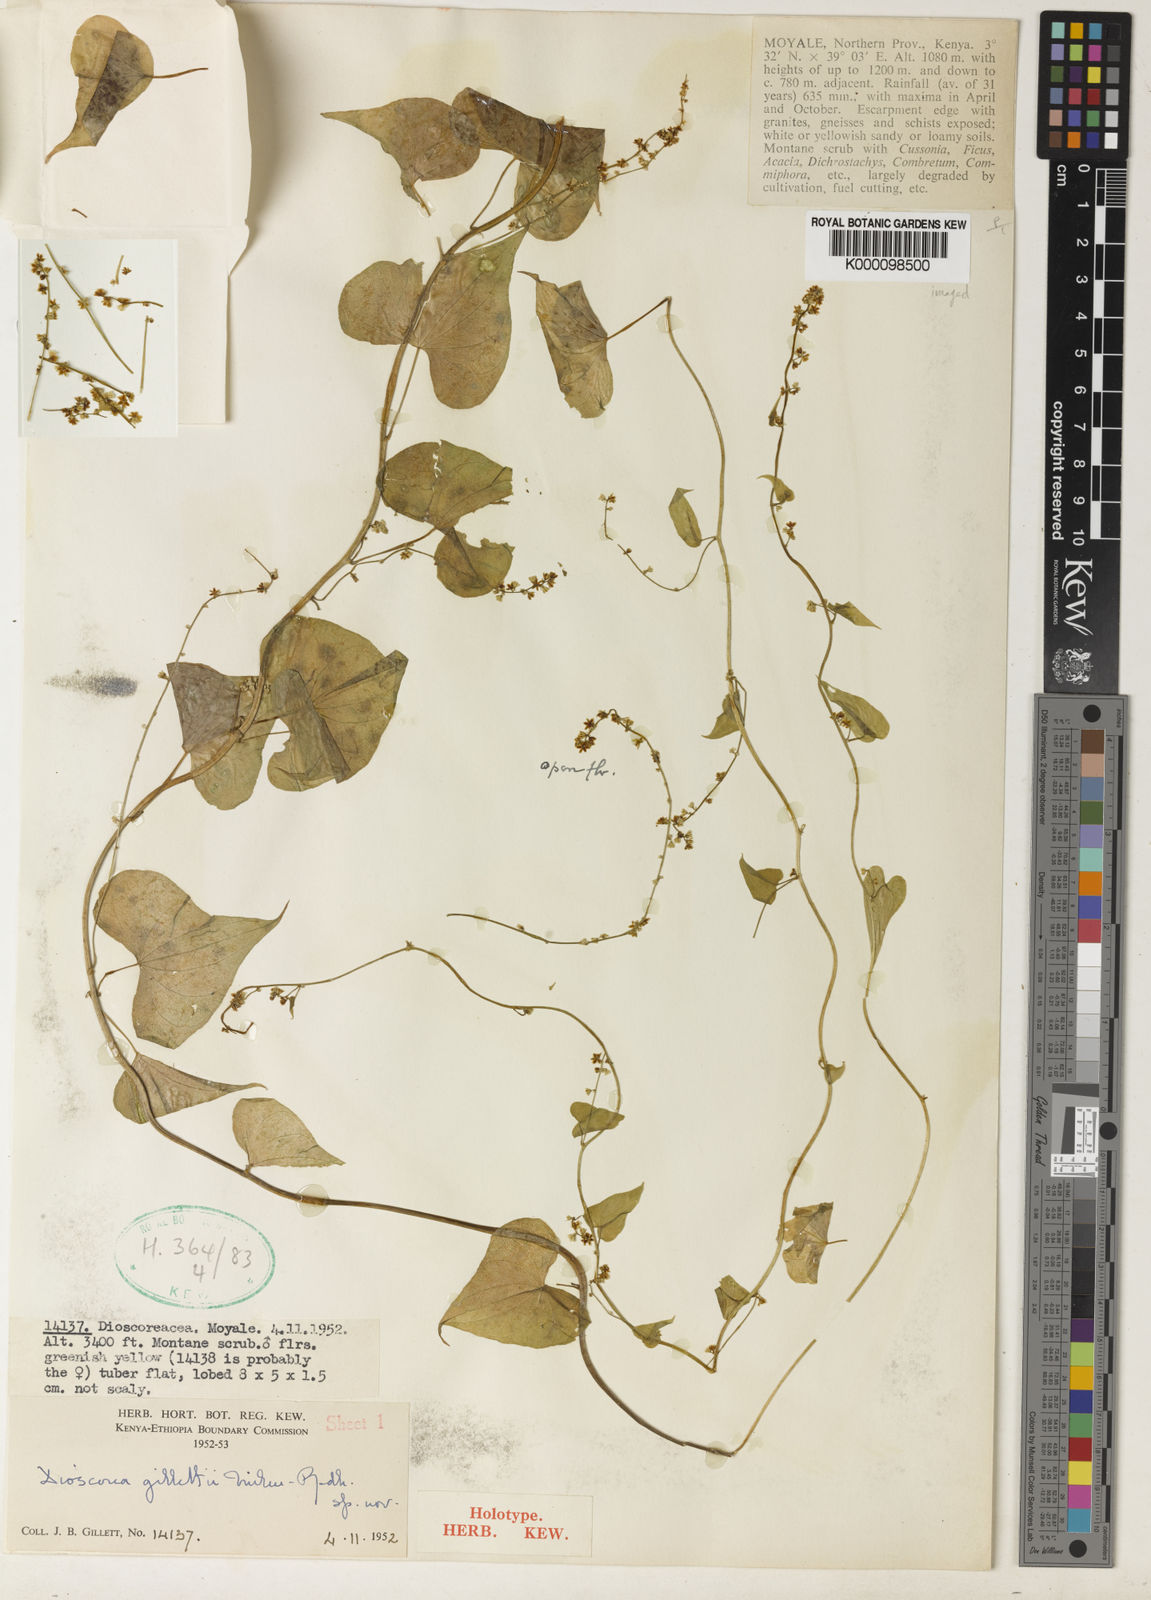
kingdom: Plantae
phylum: Tracheophyta
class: Liliopsida
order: Dioscoreales
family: Dioscoreaceae
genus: Dioscorea
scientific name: Dioscorea gillettii
